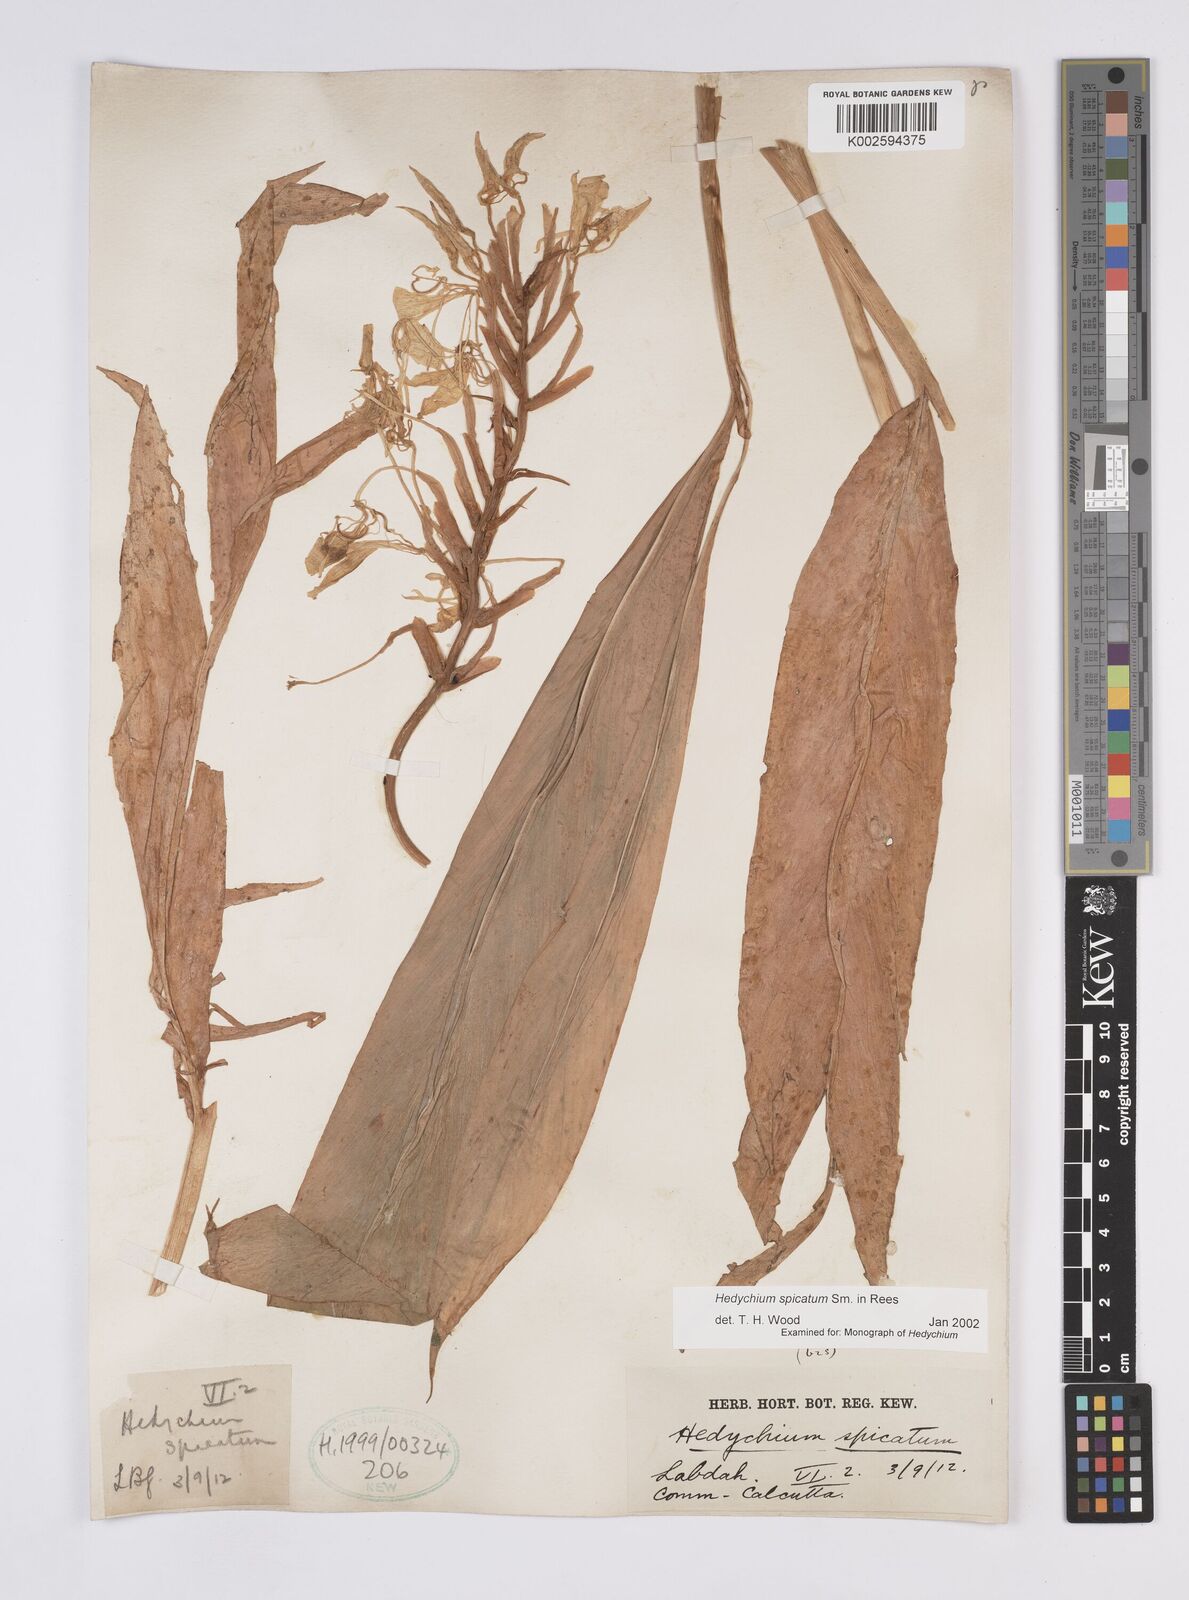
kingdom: Plantae
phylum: Tracheophyta
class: Liliopsida
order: Zingiberales
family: Zingiberaceae
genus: Hedychium
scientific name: Hedychium spicatum
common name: Spiked ginger-lily
